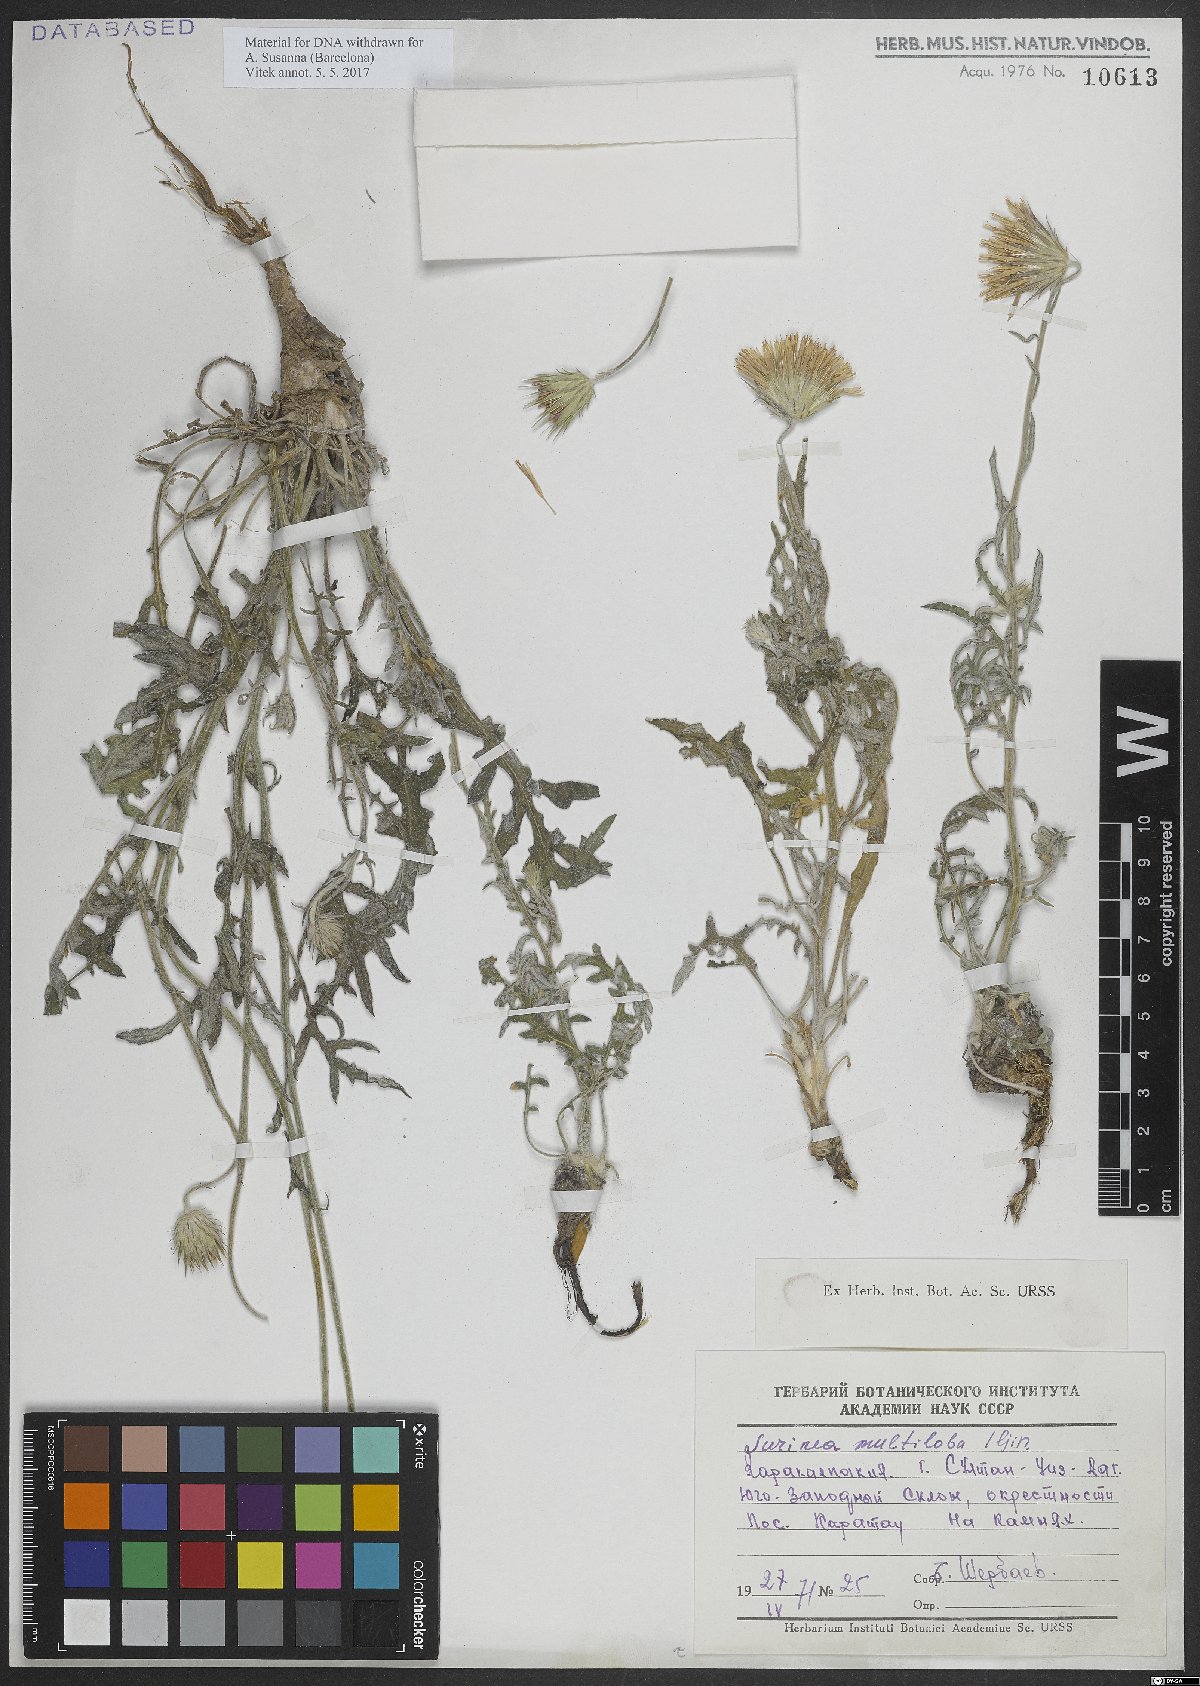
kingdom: Plantae
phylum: Tracheophyta
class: Magnoliopsida
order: Asterales
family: Asteraceae
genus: Jurinea
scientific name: Jurinea multiloba
